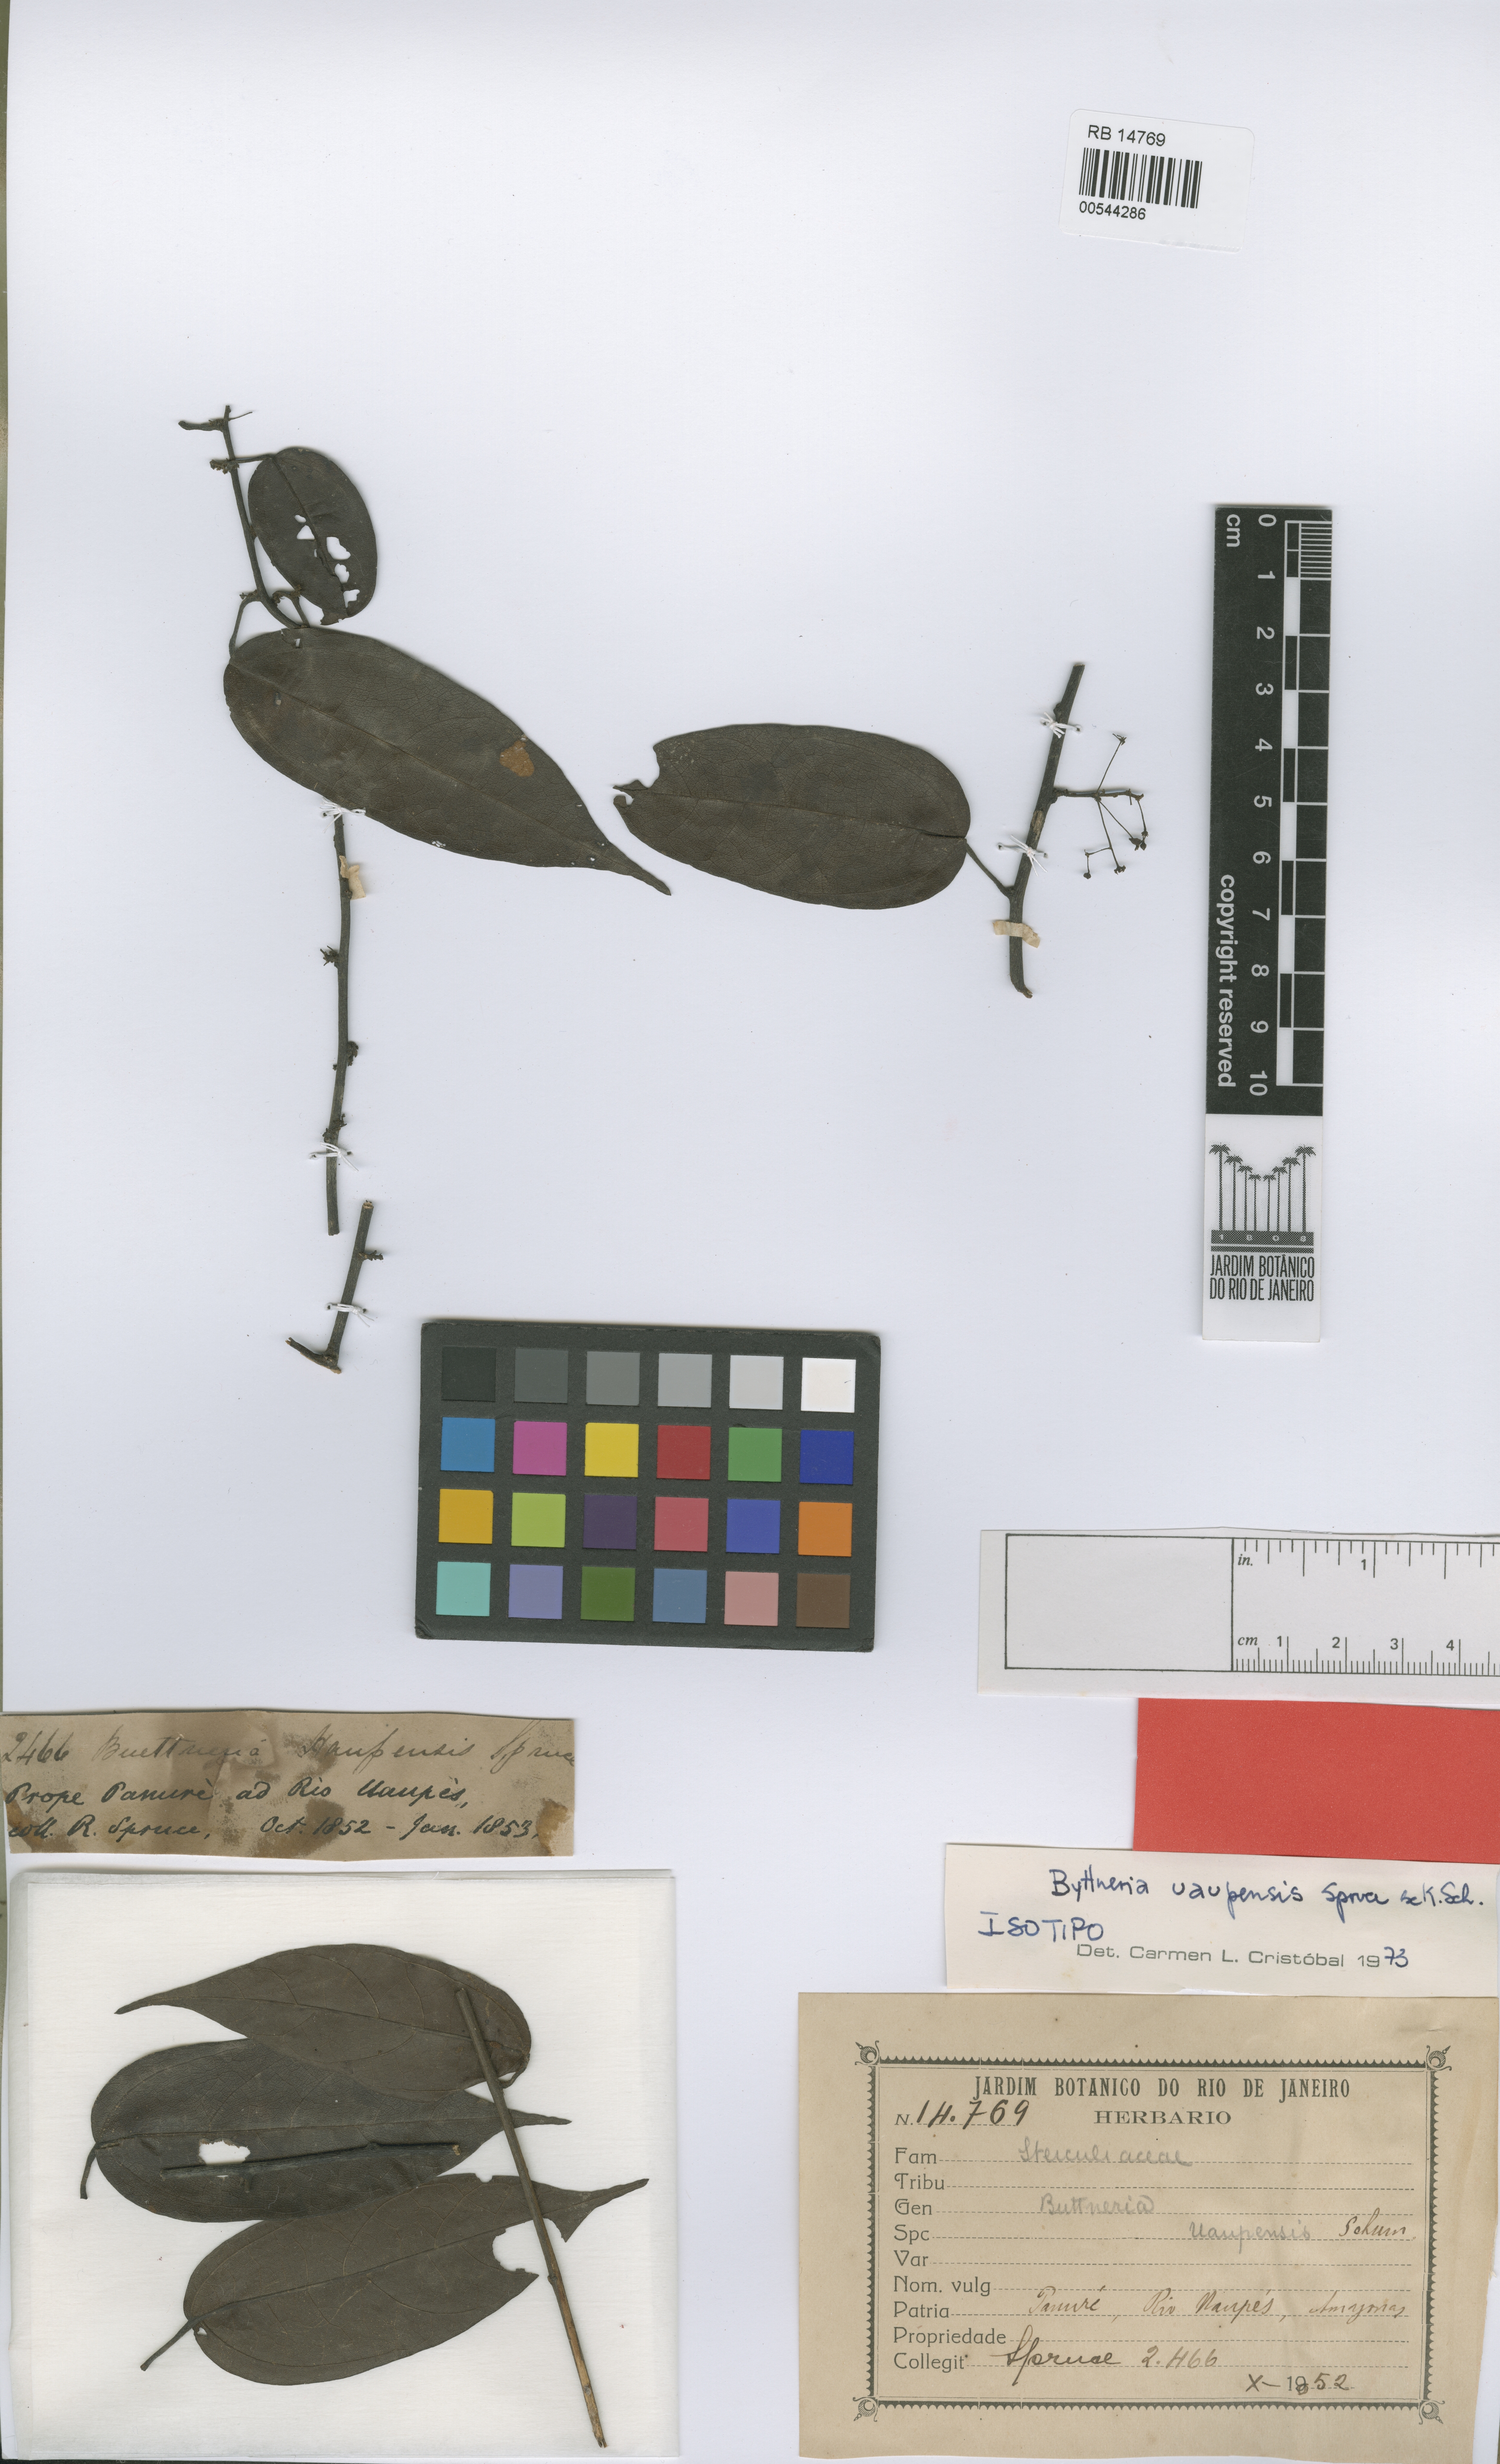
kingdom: Plantae
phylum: Tracheophyta
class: Magnoliopsida
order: Malvales
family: Malvaceae
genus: Byttneria
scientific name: Byttneria uaupensis
